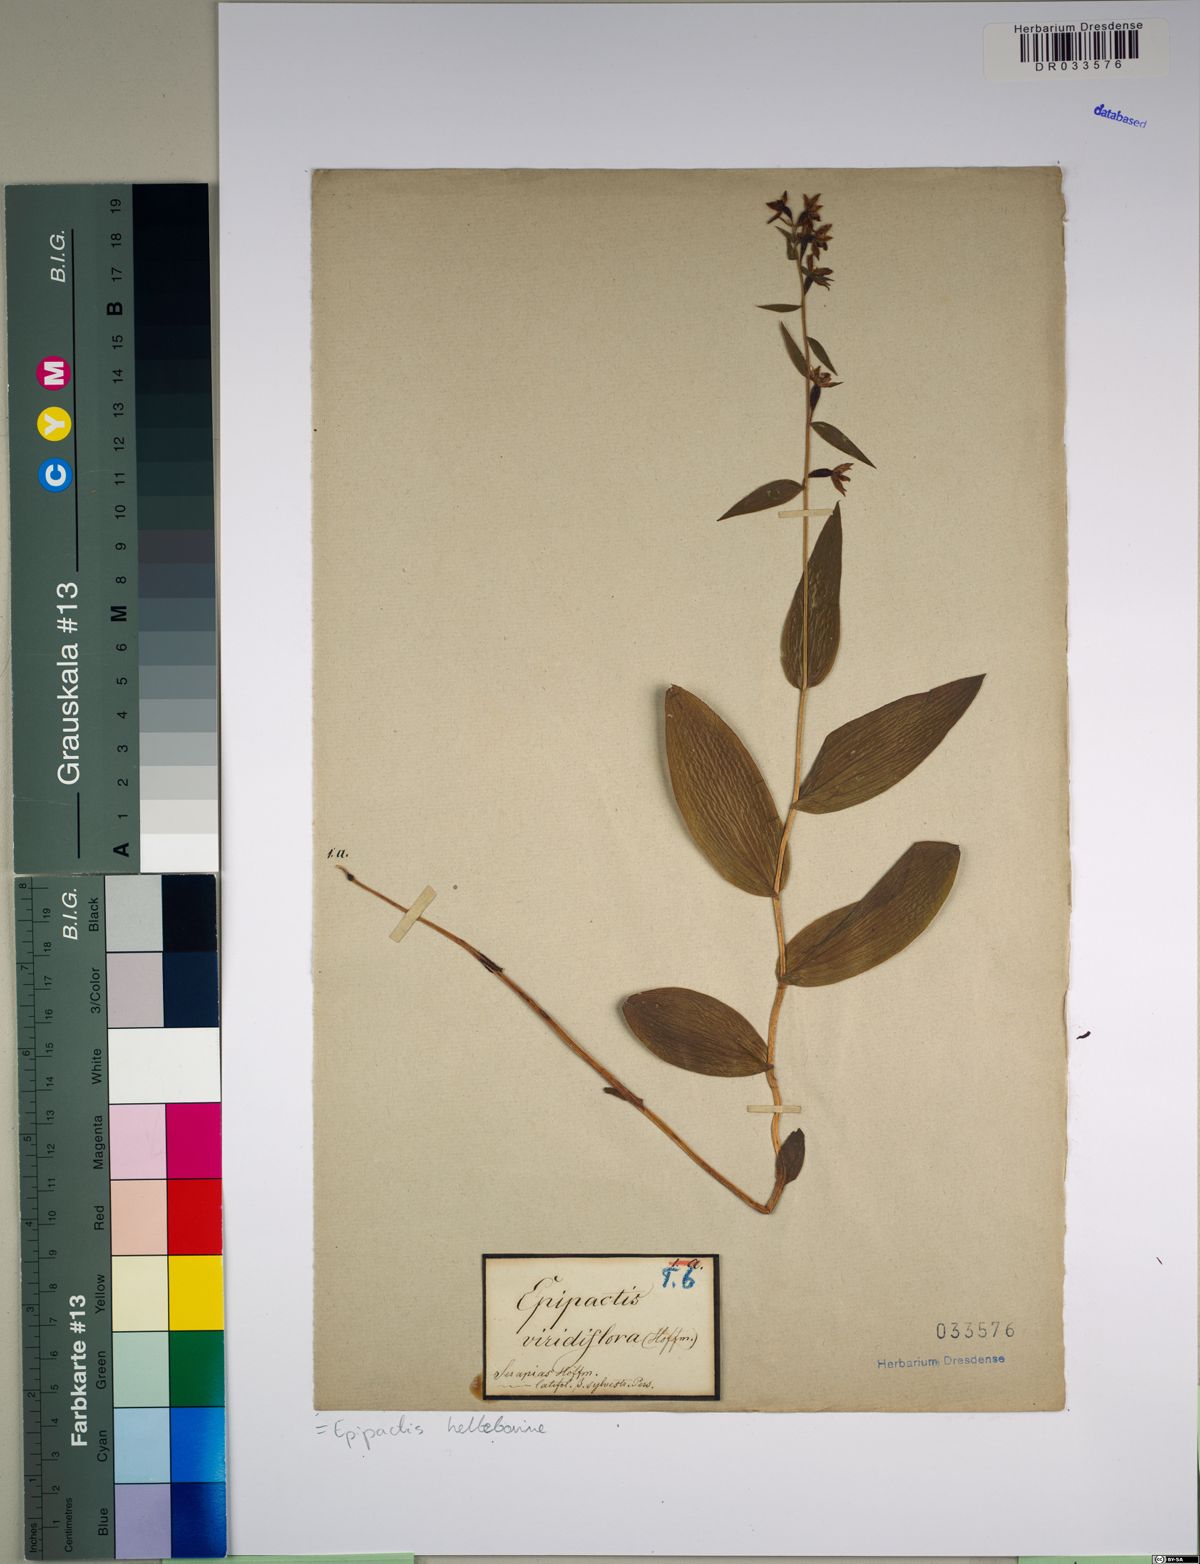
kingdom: Plantae
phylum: Tracheophyta
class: Liliopsida
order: Asparagales
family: Orchidaceae
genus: Epipactis
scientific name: Epipactis helleborine
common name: Broad-leaved helleborine
